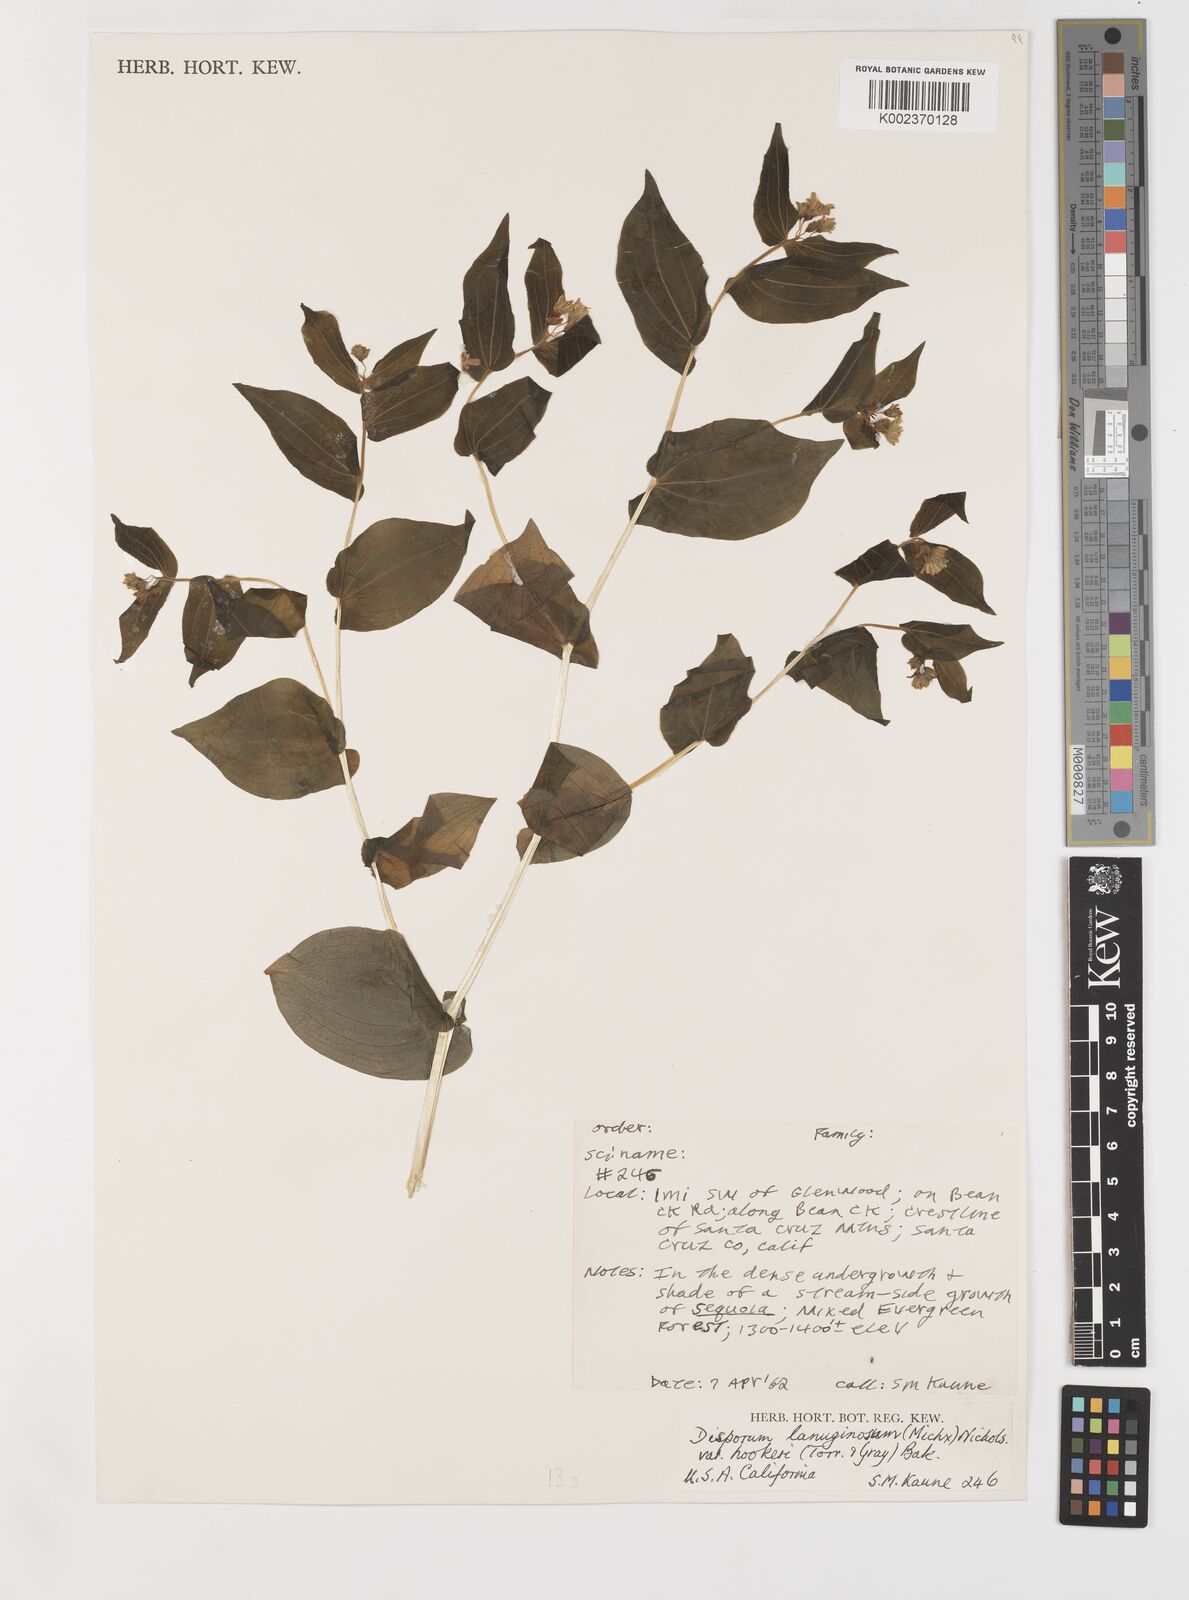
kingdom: Plantae
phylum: Tracheophyta
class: Liliopsida
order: Liliales
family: Liliaceae
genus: Prosartes
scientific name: Prosartes hookeri
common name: Fairy-bells
